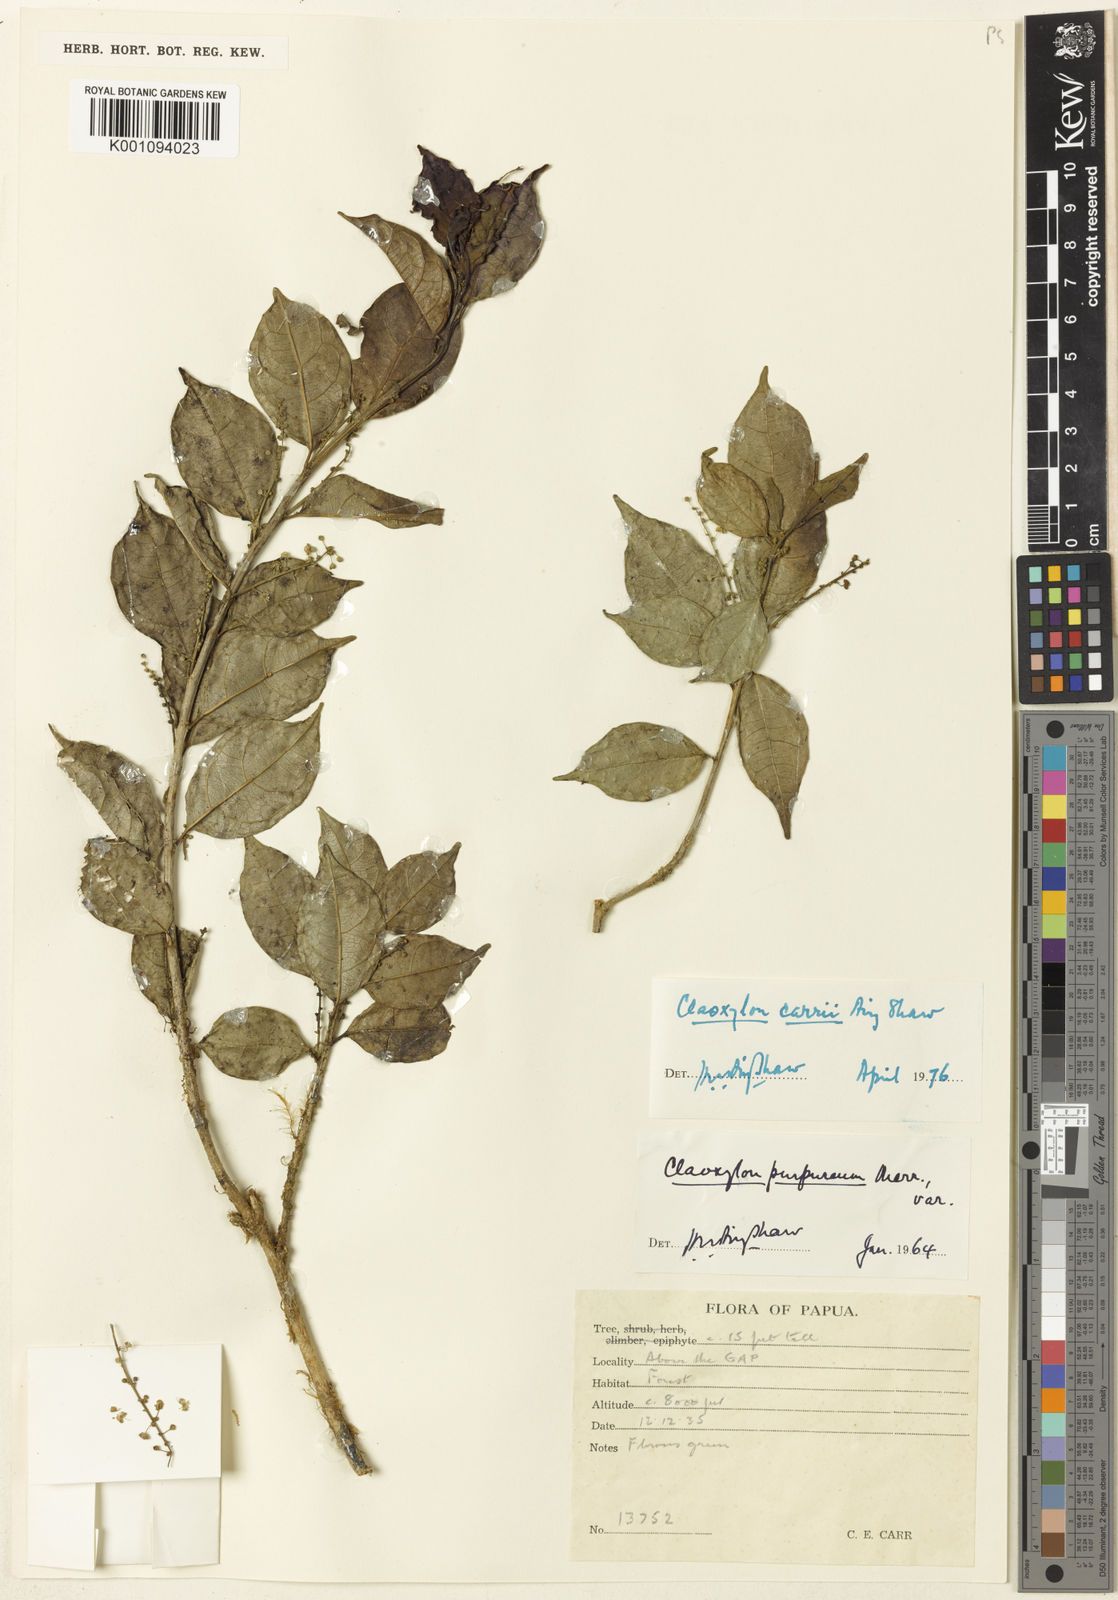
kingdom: Plantae
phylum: Tracheophyta
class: Magnoliopsida
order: Malpighiales
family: Euphorbiaceae
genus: Claoxylon
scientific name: Claoxylon carrii
